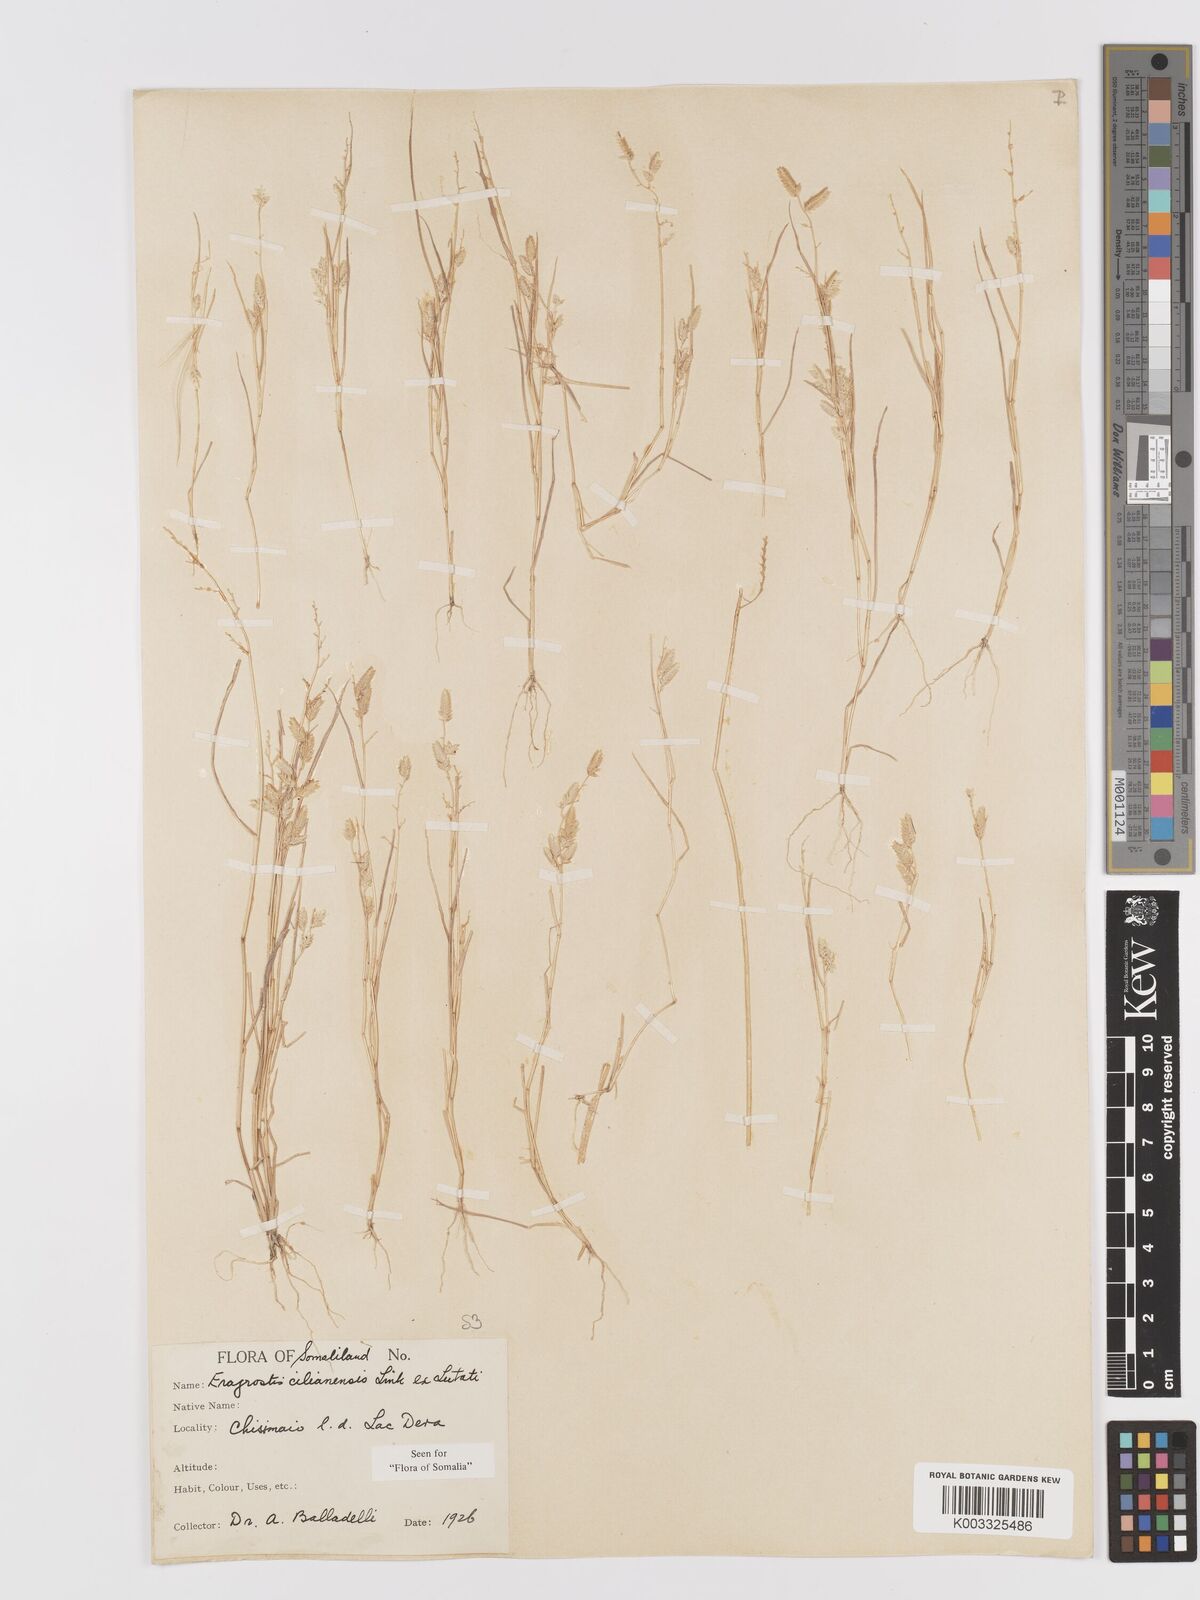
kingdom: Plantae
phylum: Tracheophyta
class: Liliopsida
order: Poales
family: Poaceae
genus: Eragrostis
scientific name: Eragrostis cilianensis
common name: Stinkgrass
